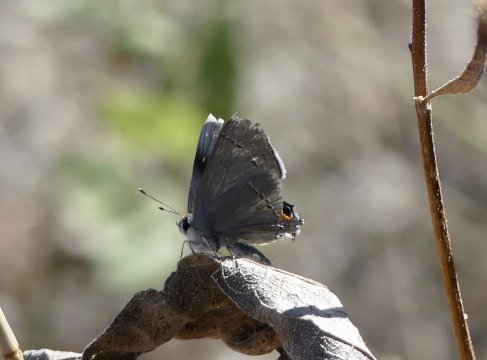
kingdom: Animalia
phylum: Arthropoda
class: Insecta
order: Lepidoptera
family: Lycaenidae
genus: Strymon
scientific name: Strymon melinus
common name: Gray Hairstreak
